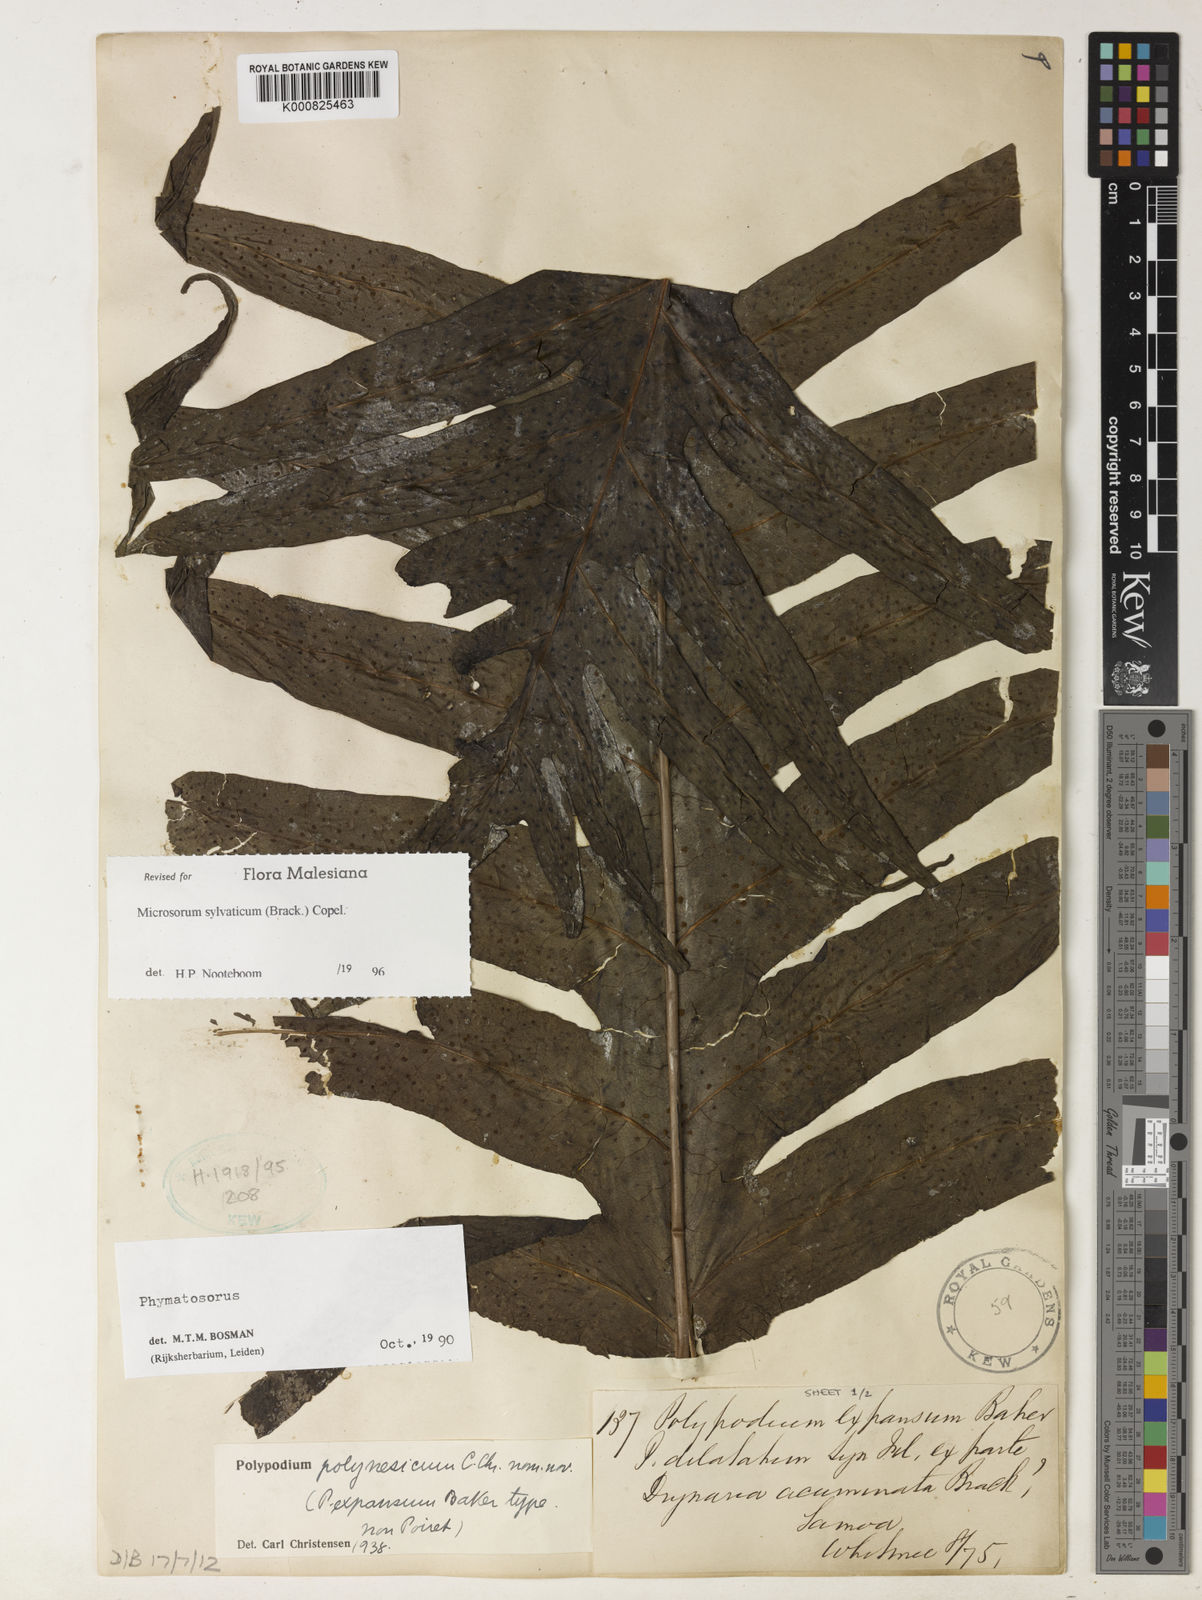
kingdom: Plantae
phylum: Tracheophyta
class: Polypodiopsida
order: Polypodiales
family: Polypodiaceae
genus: Microsorum
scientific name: Microsorum commutatum
